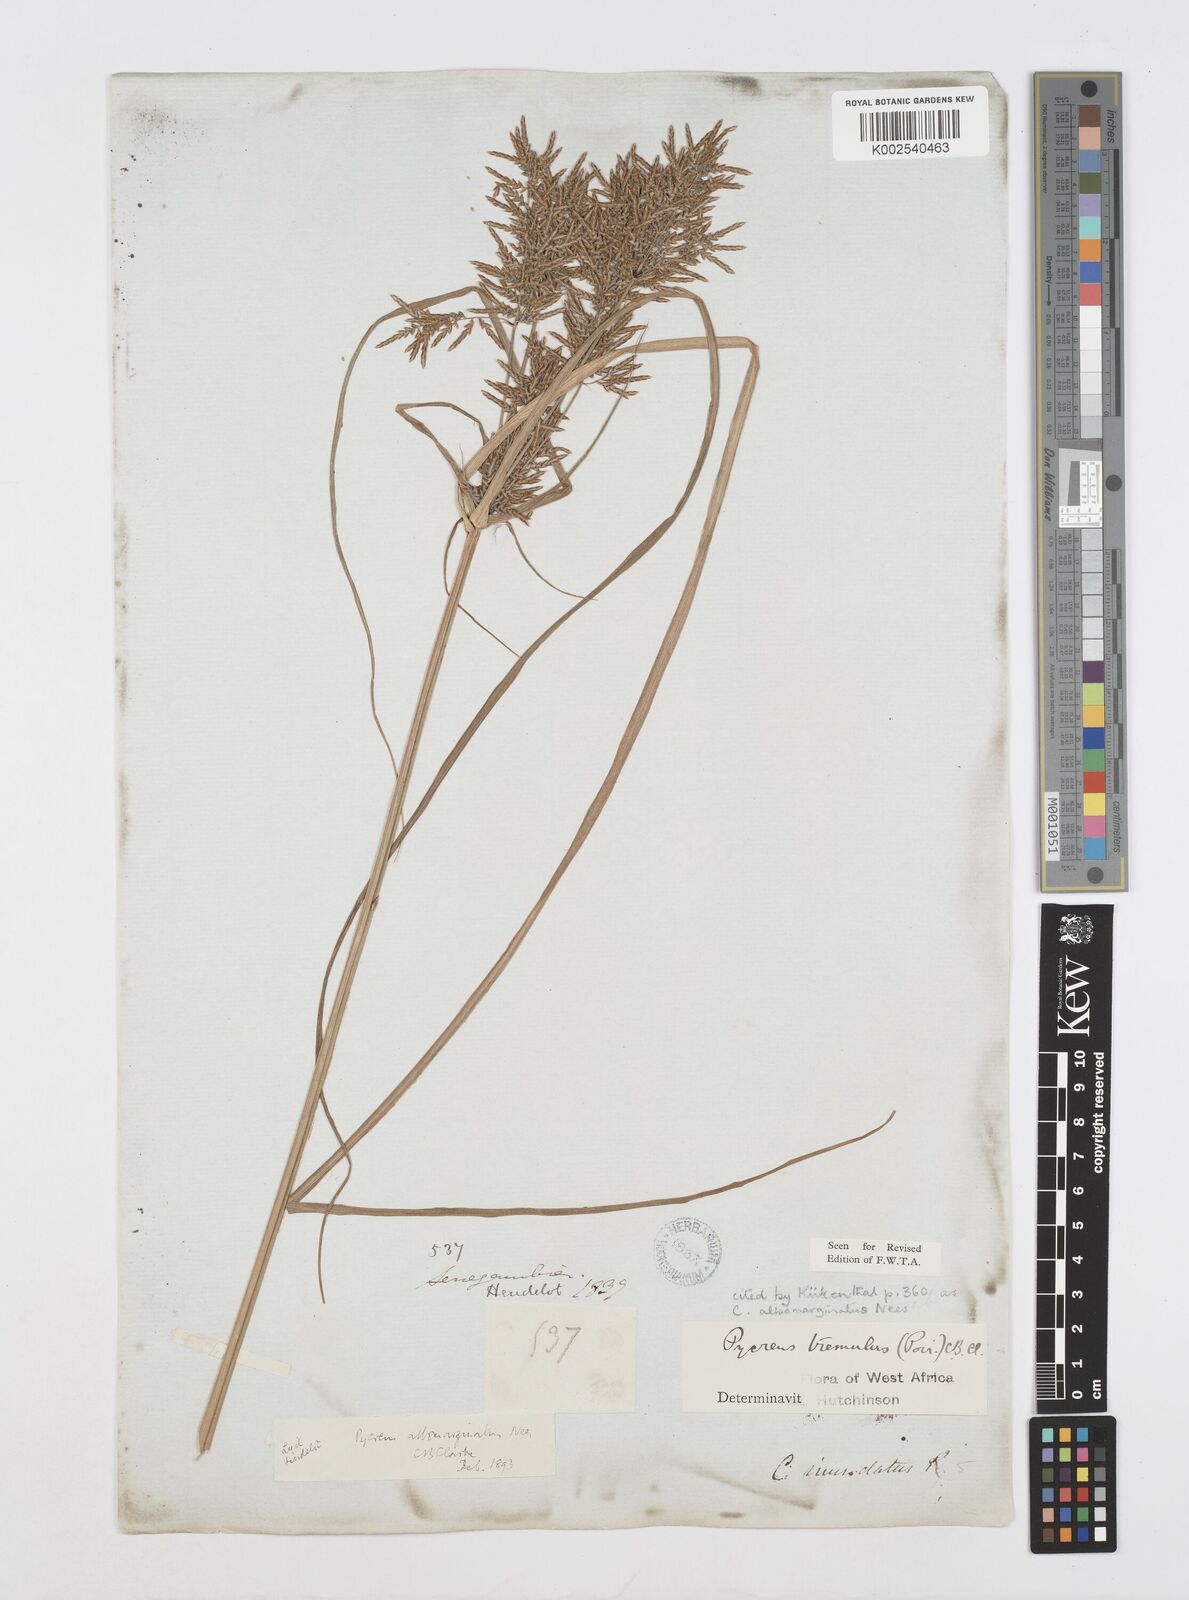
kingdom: Plantae
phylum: Tracheophyta
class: Liliopsida
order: Poales
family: Cyperaceae
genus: Cyperus
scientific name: Cyperus macrostachyos
